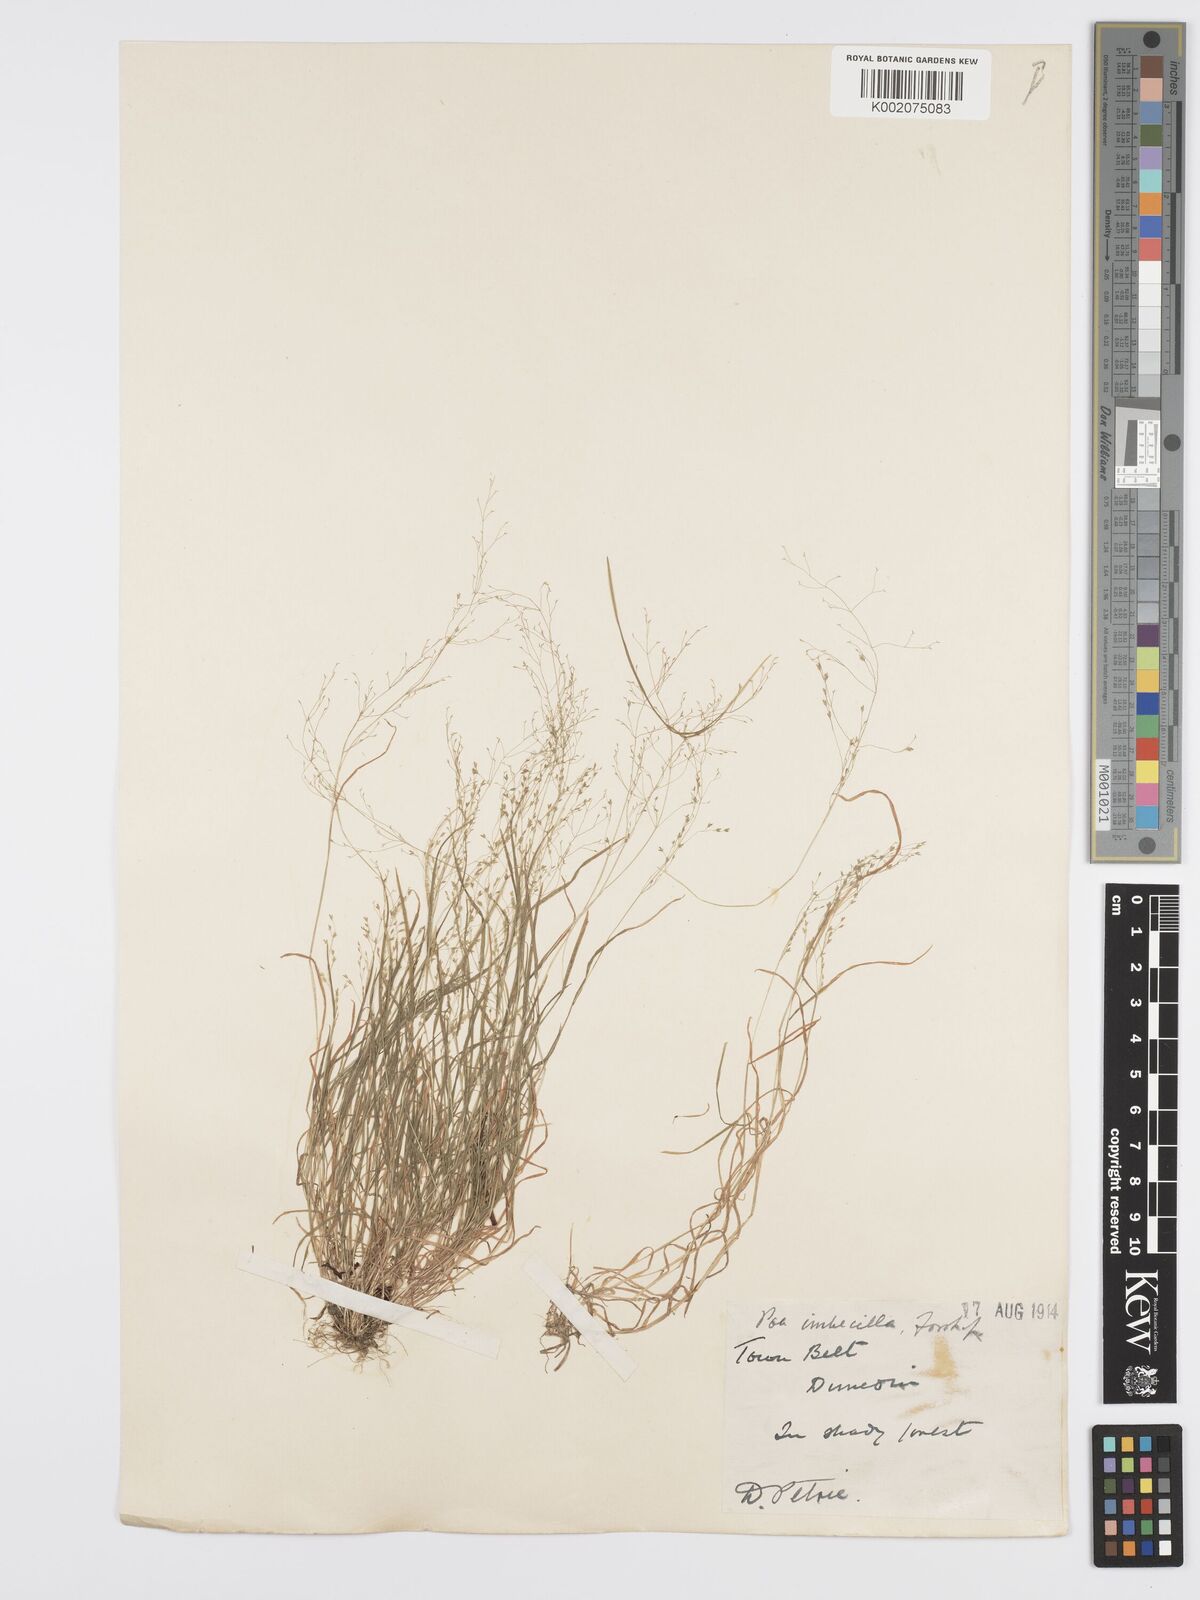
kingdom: Plantae
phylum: Tracheophyta
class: Liliopsida
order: Poales
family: Poaceae
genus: Poa
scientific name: Poa breviglumis
